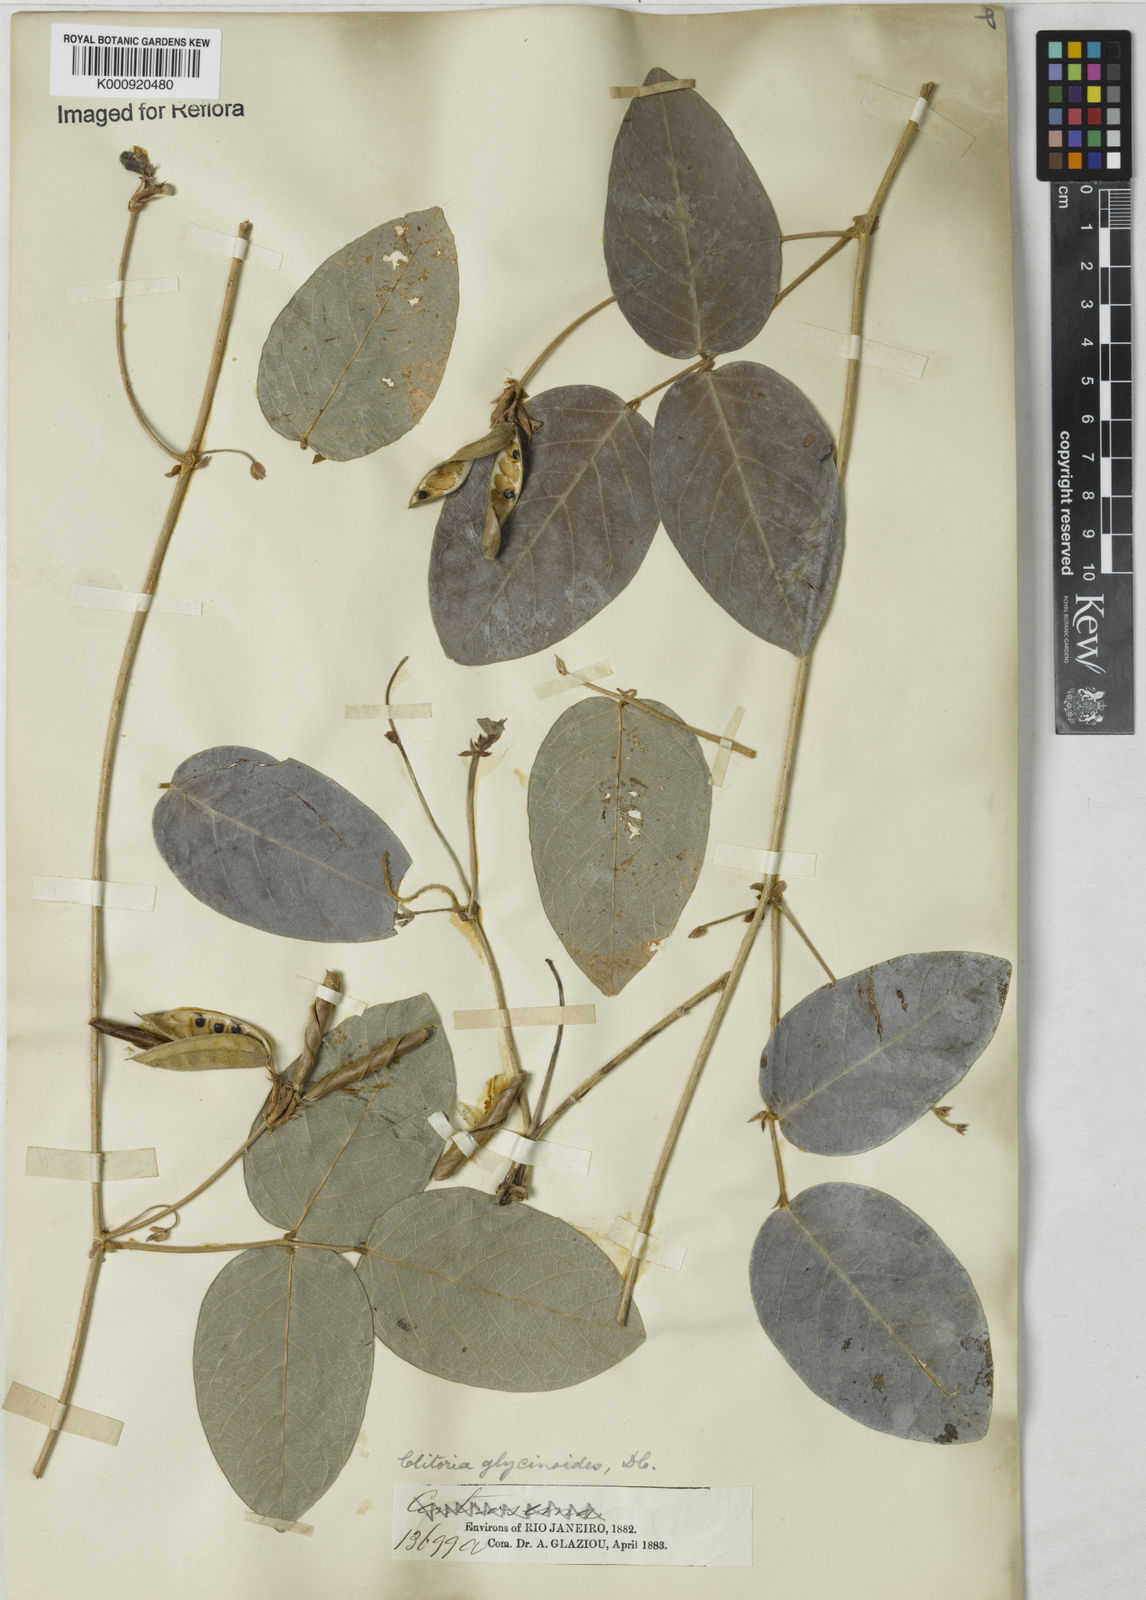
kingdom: Plantae
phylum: Tracheophyta
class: Magnoliopsida
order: Fabales
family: Fabaceae
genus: Clitoria
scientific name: Clitoria
